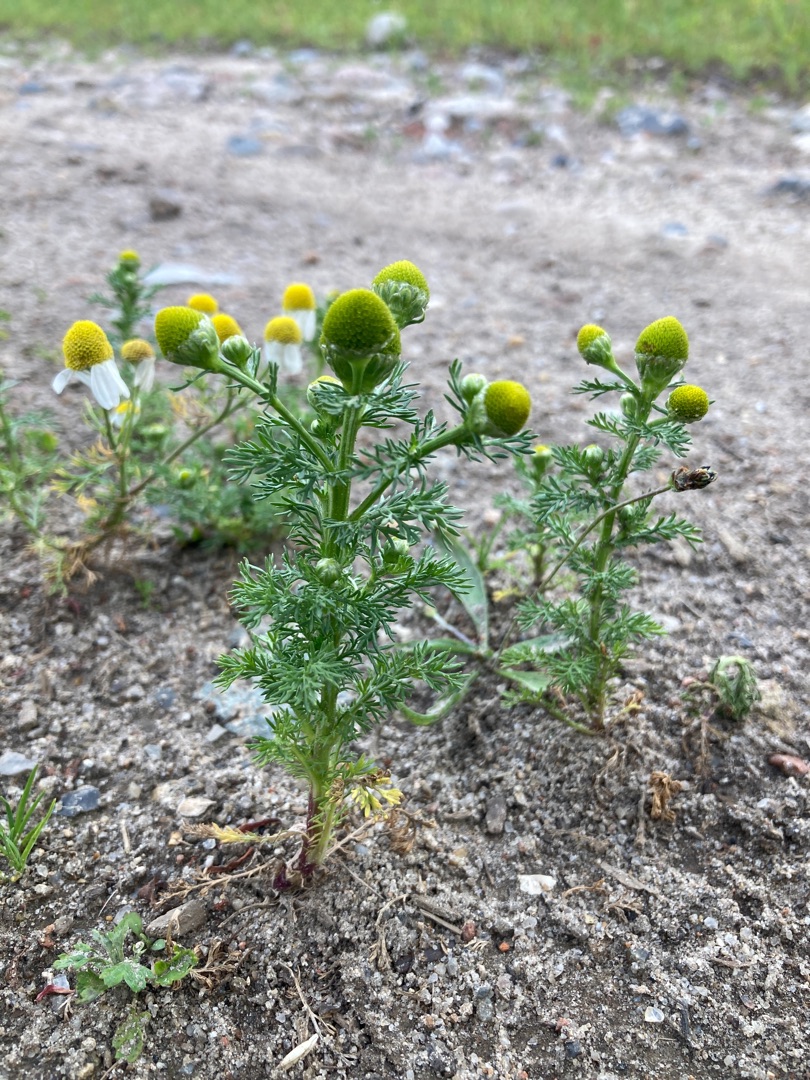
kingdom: Plantae
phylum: Tracheophyta
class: Magnoliopsida
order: Asterales
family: Asteraceae
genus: Matricaria
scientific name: Matricaria discoidea
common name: Skive-kamille
